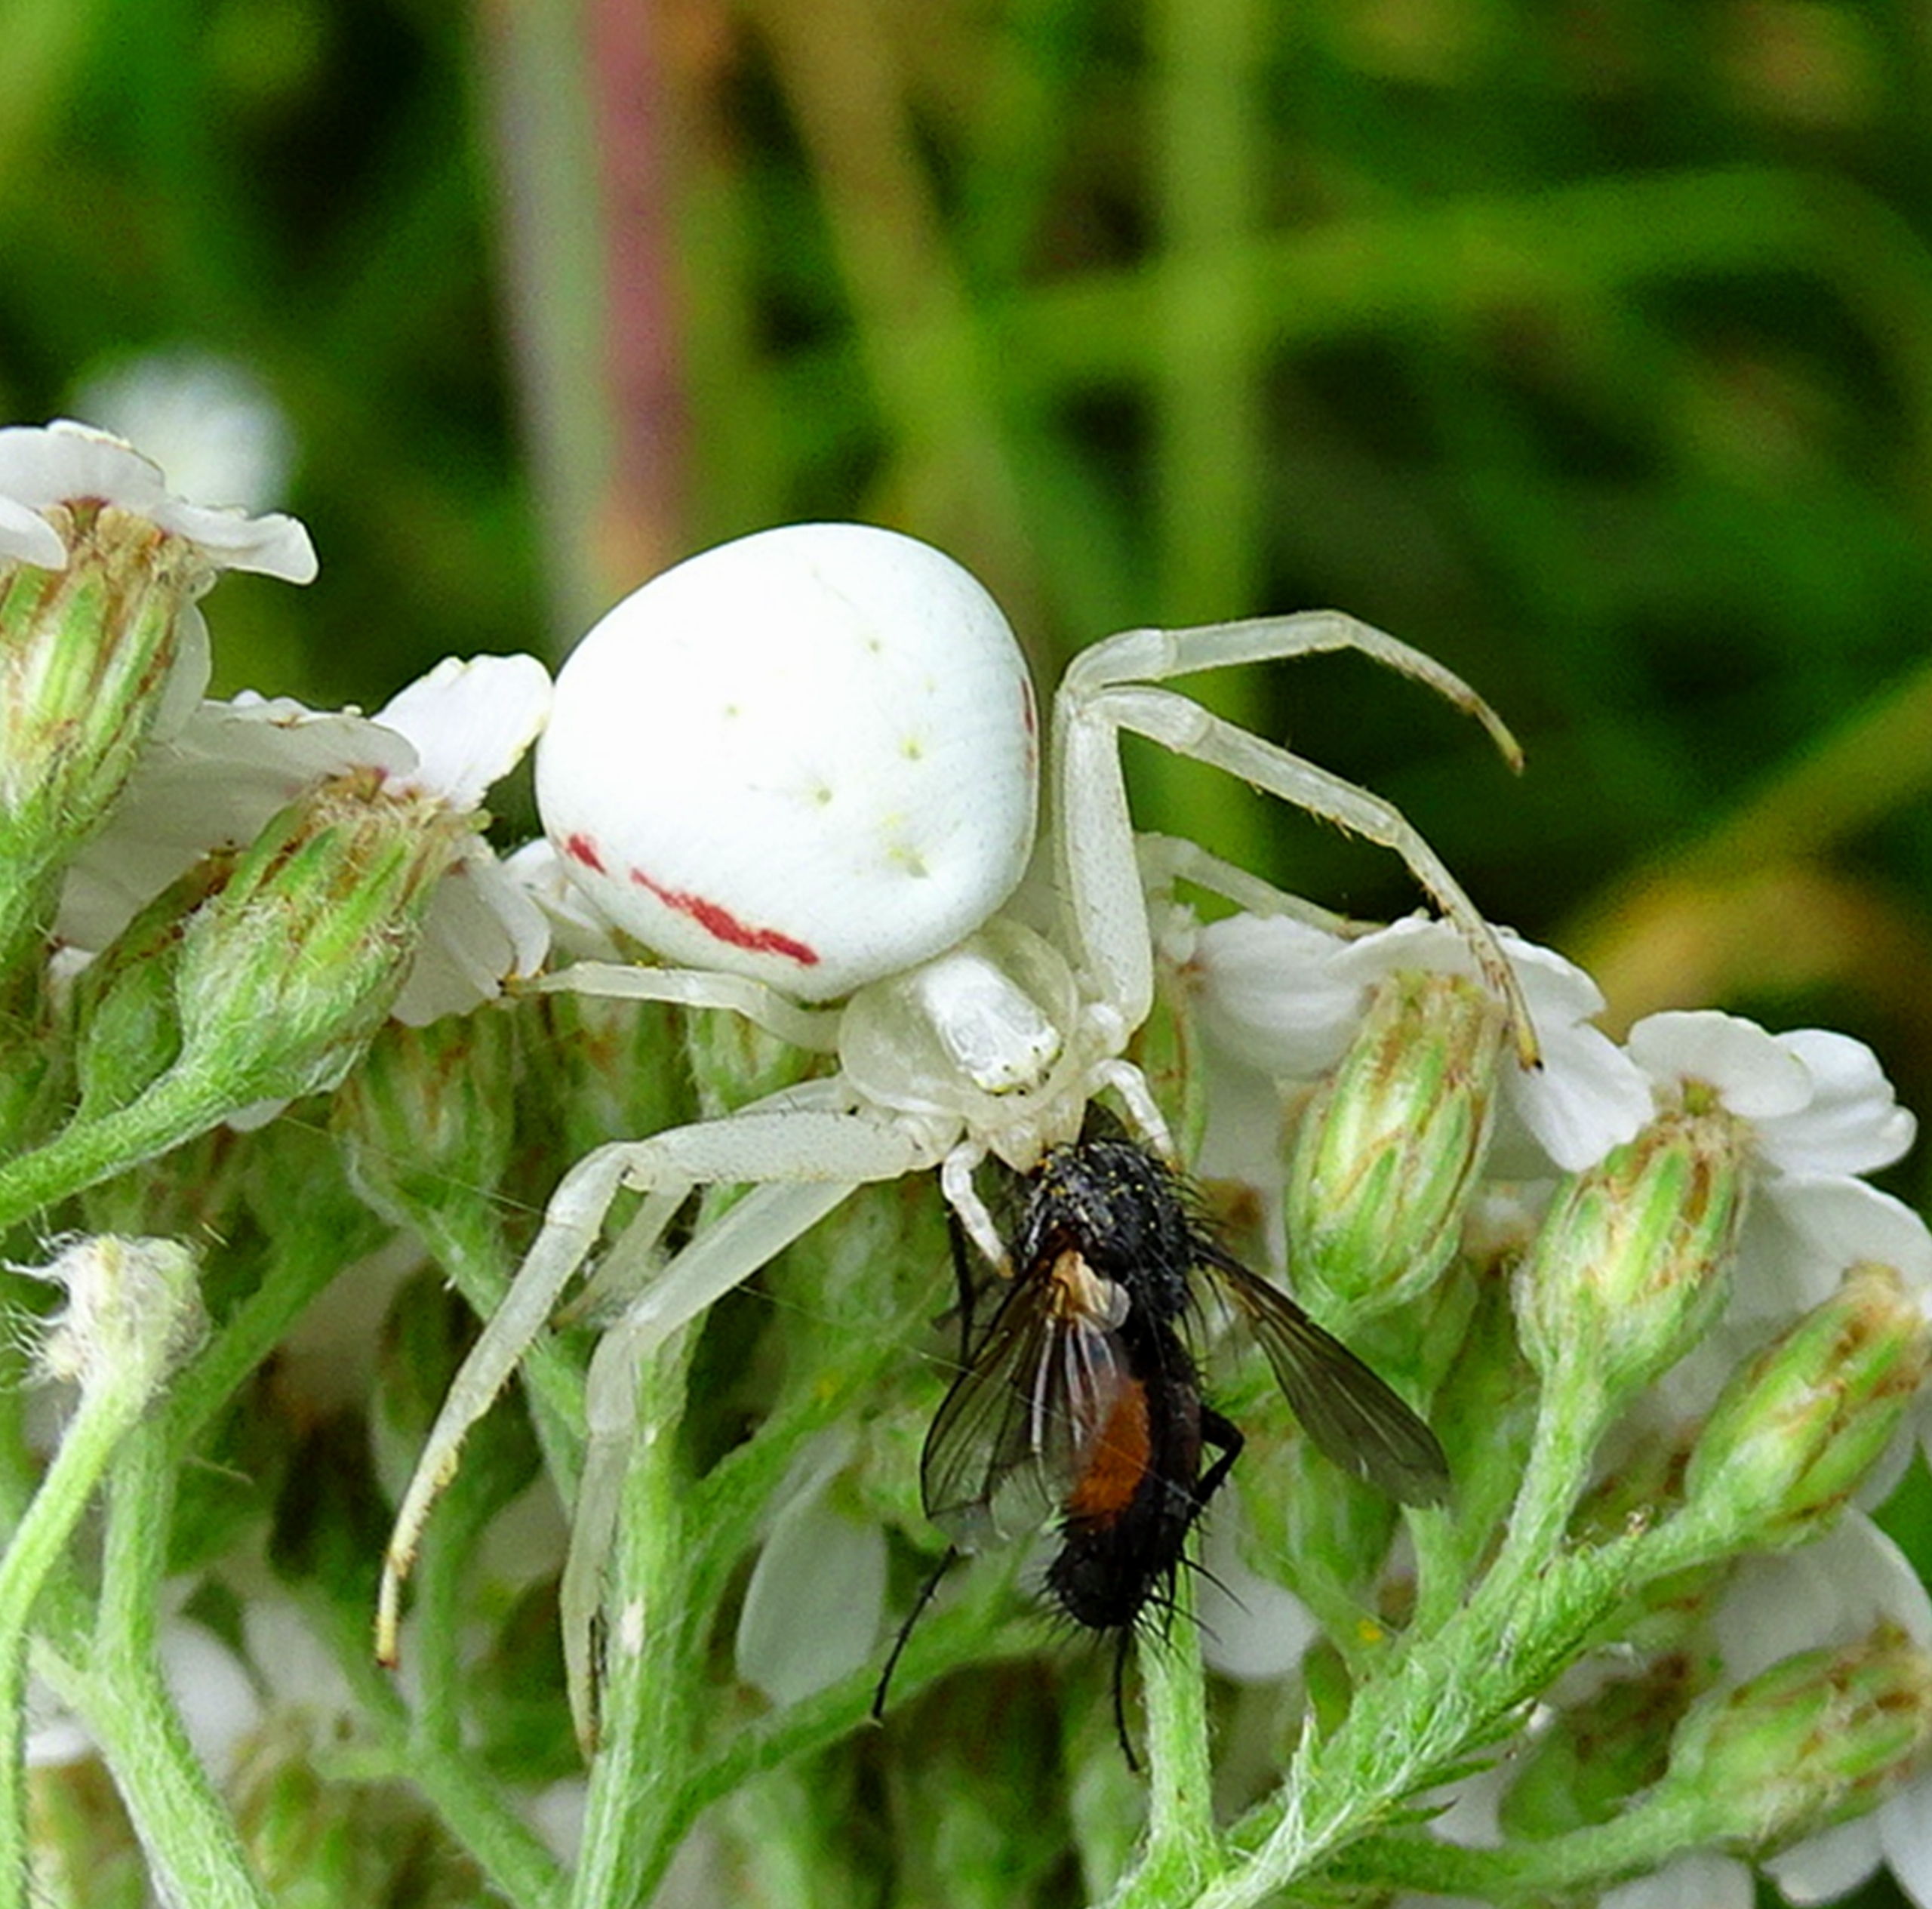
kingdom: Animalia
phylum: Arthropoda
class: Arachnida
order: Araneae
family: Thomisidae
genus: Misumena
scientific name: Misumena vatia
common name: Kamæleonedderkop
